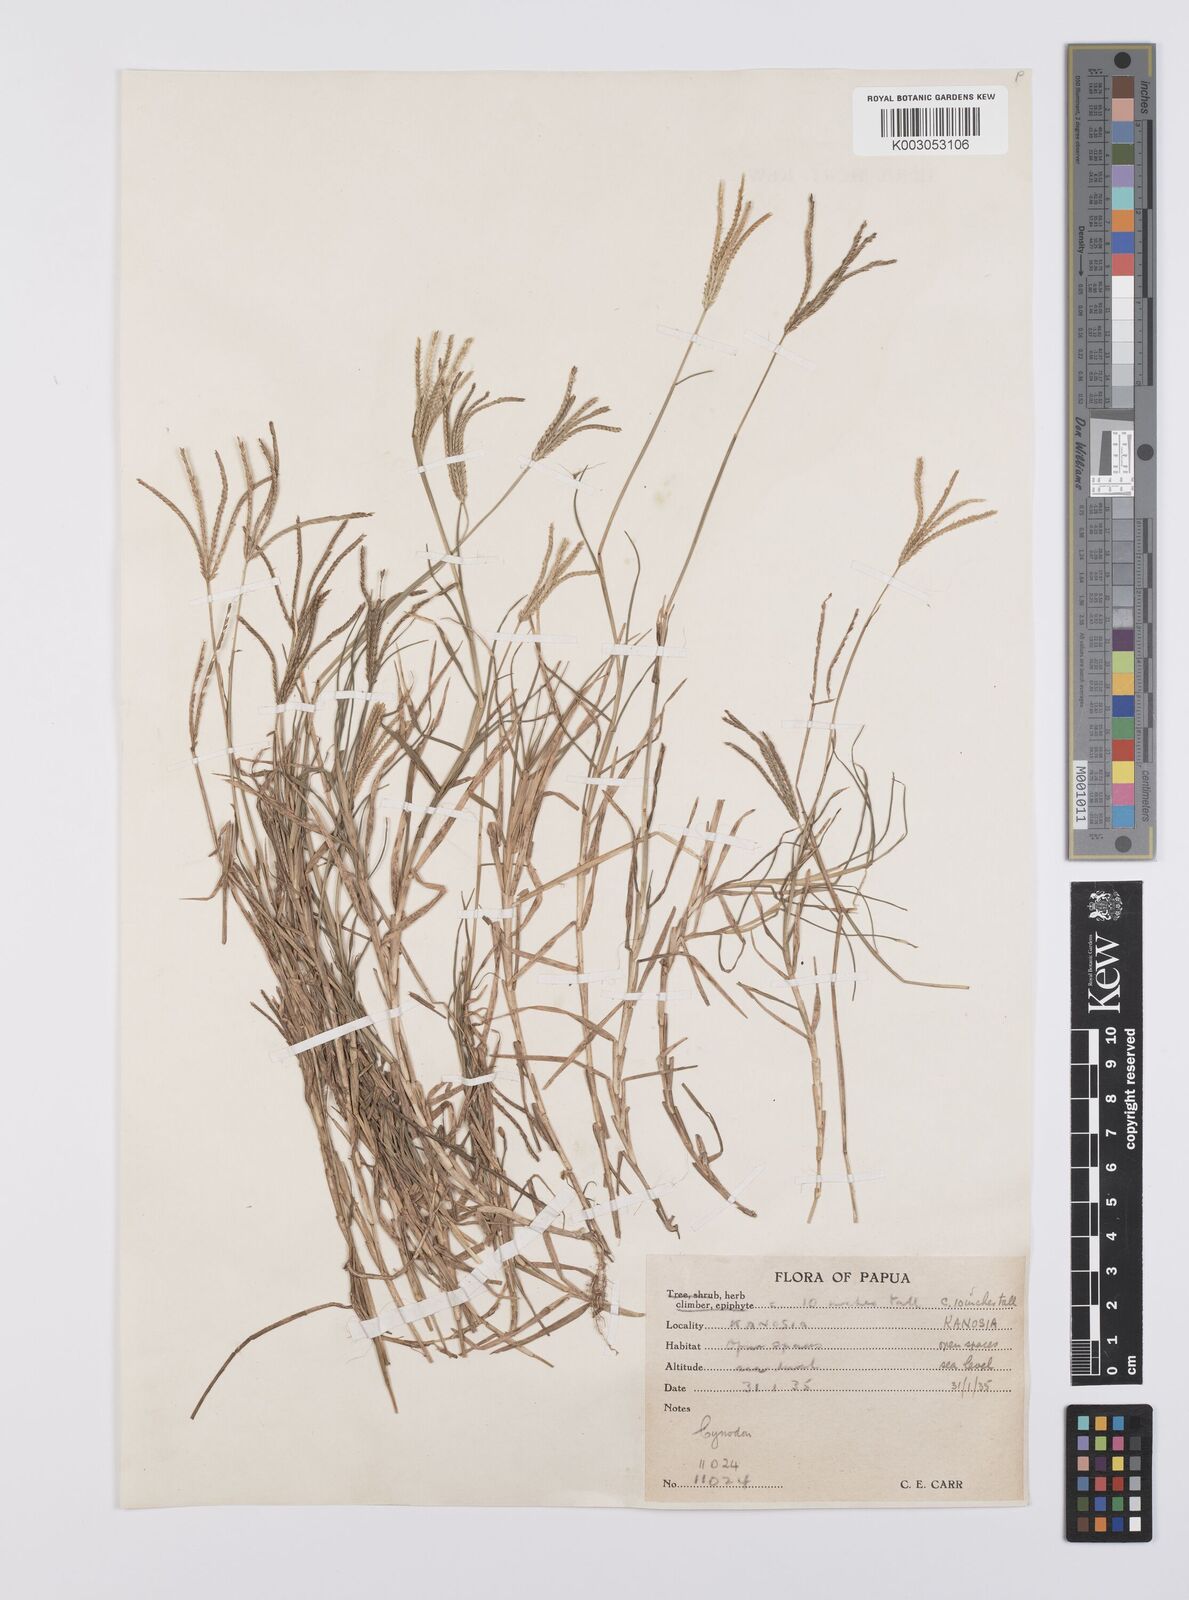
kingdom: Plantae
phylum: Tracheophyta
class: Liliopsida
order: Poales
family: Poaceae
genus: Cynodon
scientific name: Cynodon dactylon
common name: Bermuda grass
